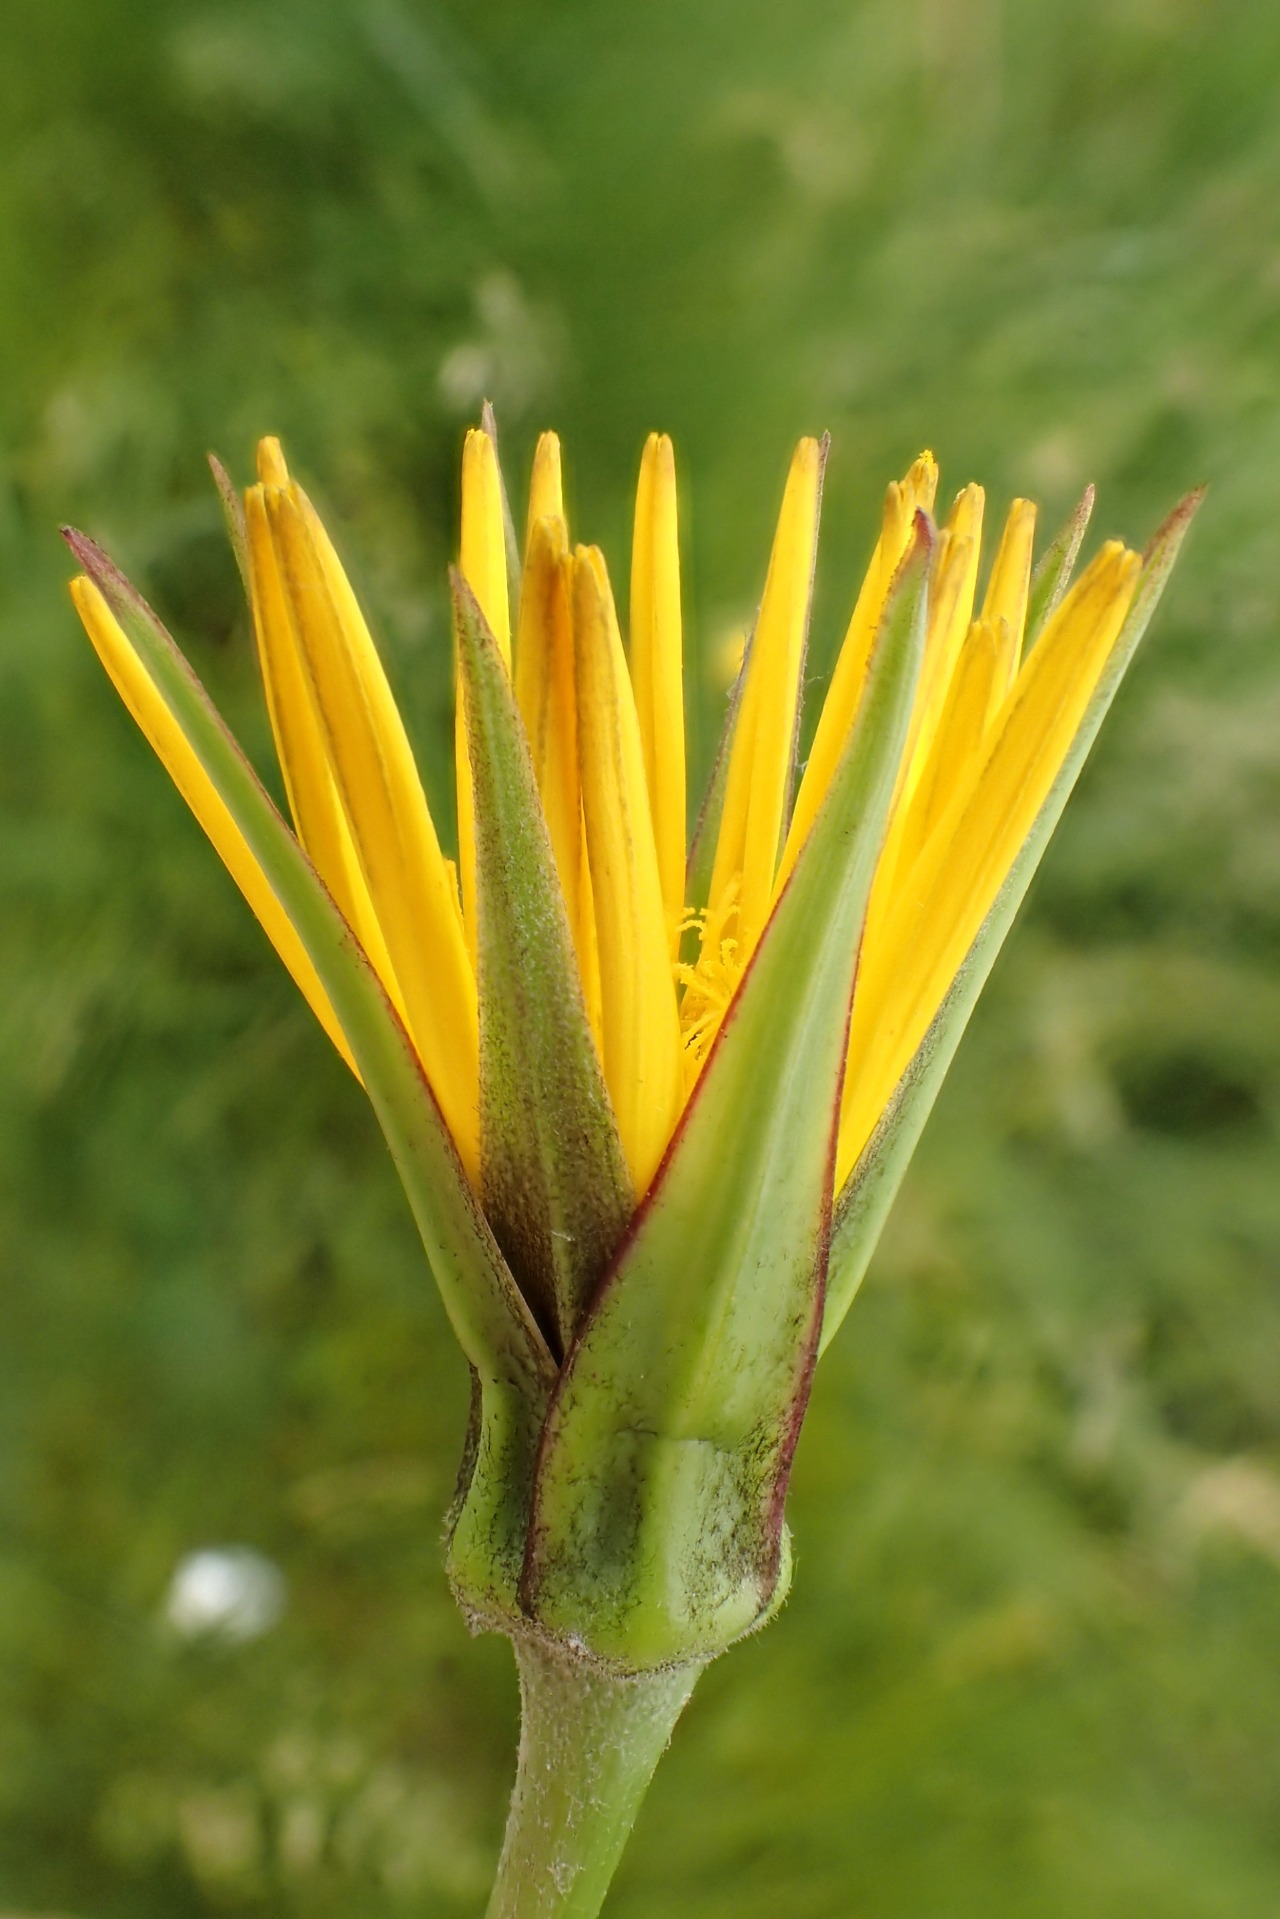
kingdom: Plantae
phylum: Tracheophyta
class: Magnoliopsida
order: Asterales
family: Asteraceae
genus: Tragopogon
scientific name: Tragopogon pratensis
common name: Eng-gedeskæg
